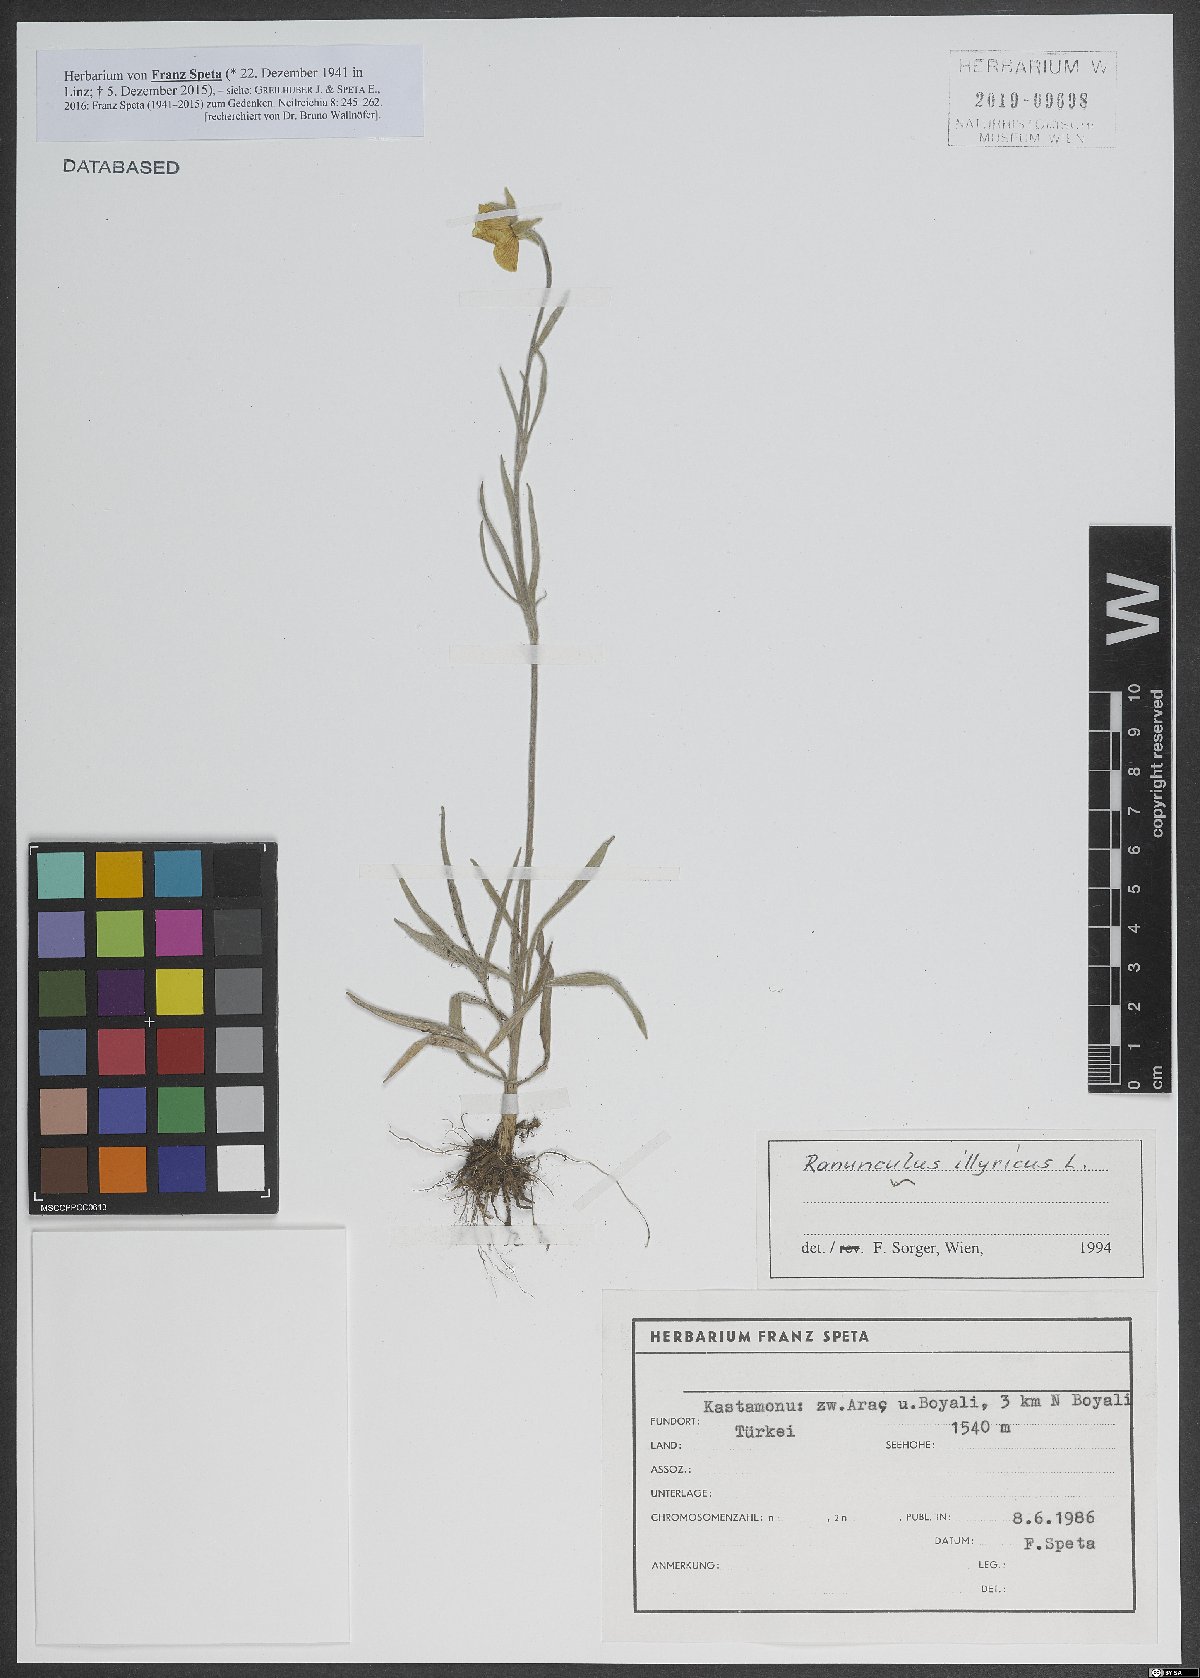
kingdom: Plantae
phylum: Tracheophyta
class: Magnoliopsida
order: Ranunculales
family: Ranunculaceae
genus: Ranunculus
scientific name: Ranunculus illyricus
